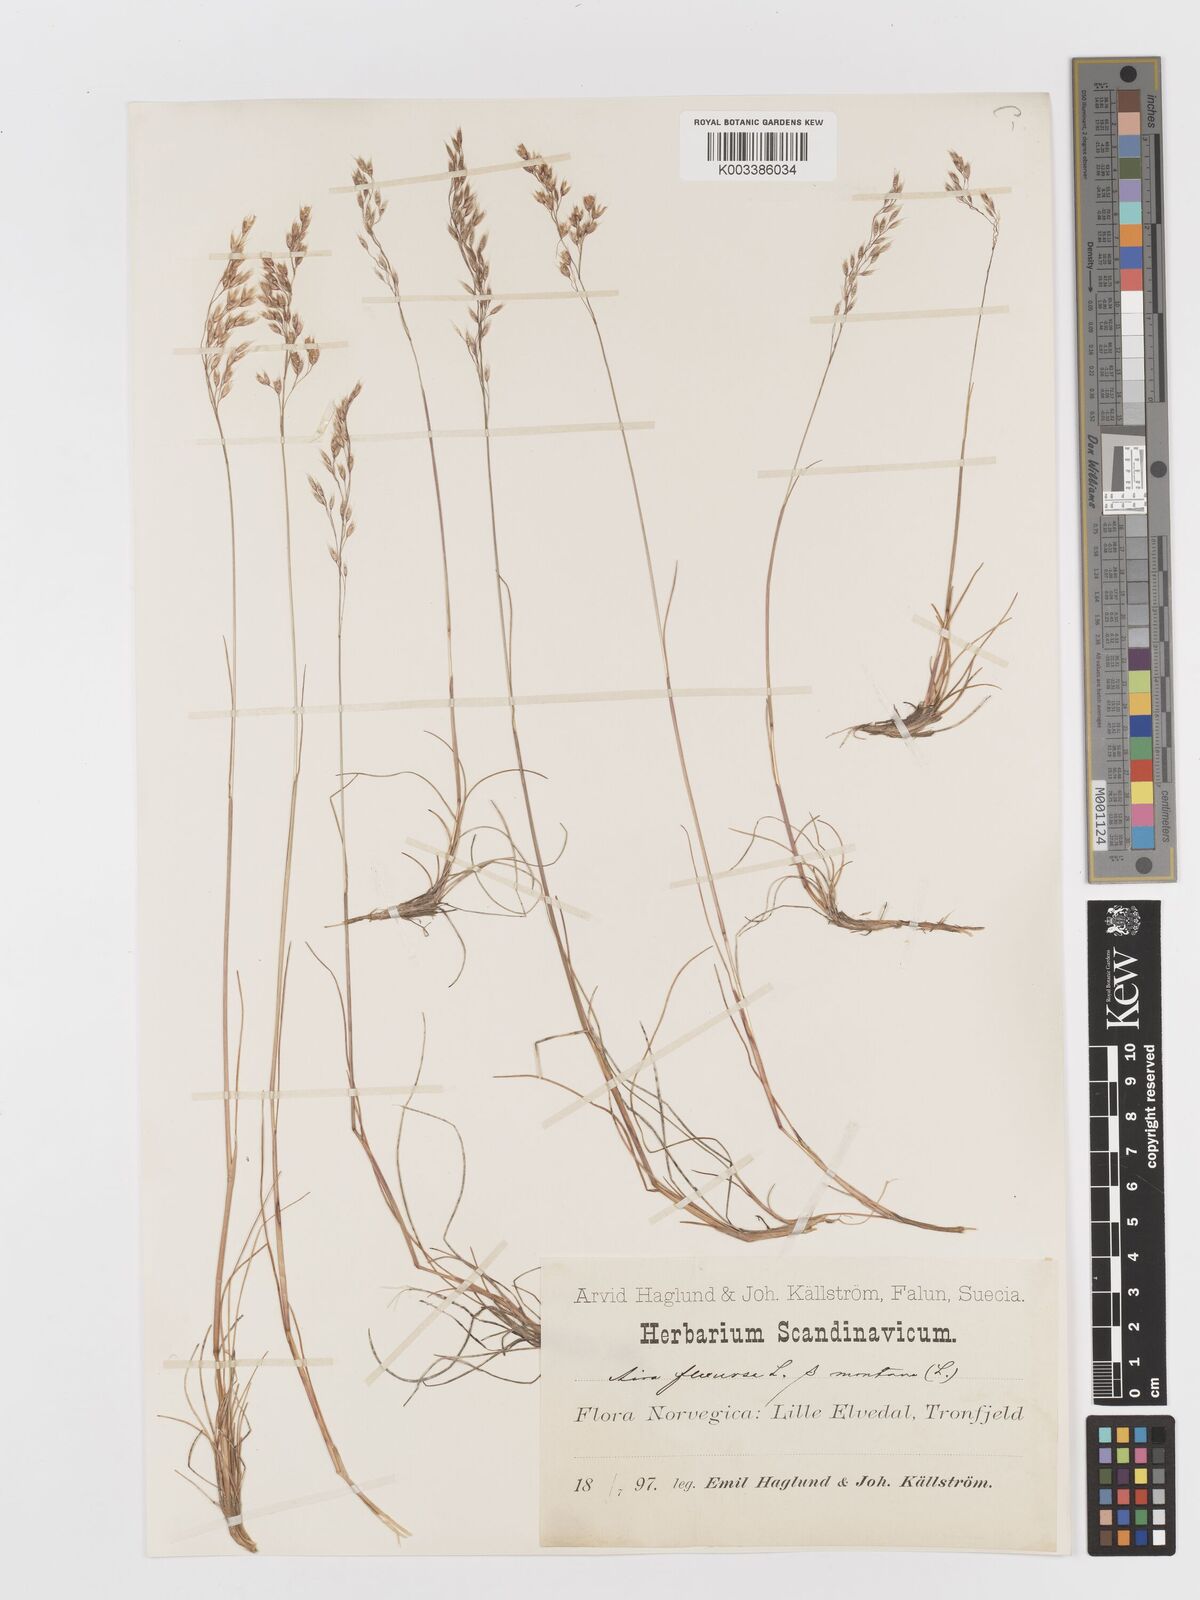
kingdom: Plantae
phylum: Tracheophyta
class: Liliopsida
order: Poales
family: Poaceae
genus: Avenella
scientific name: Avenella flexuosa
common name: Wavy hairgrass
